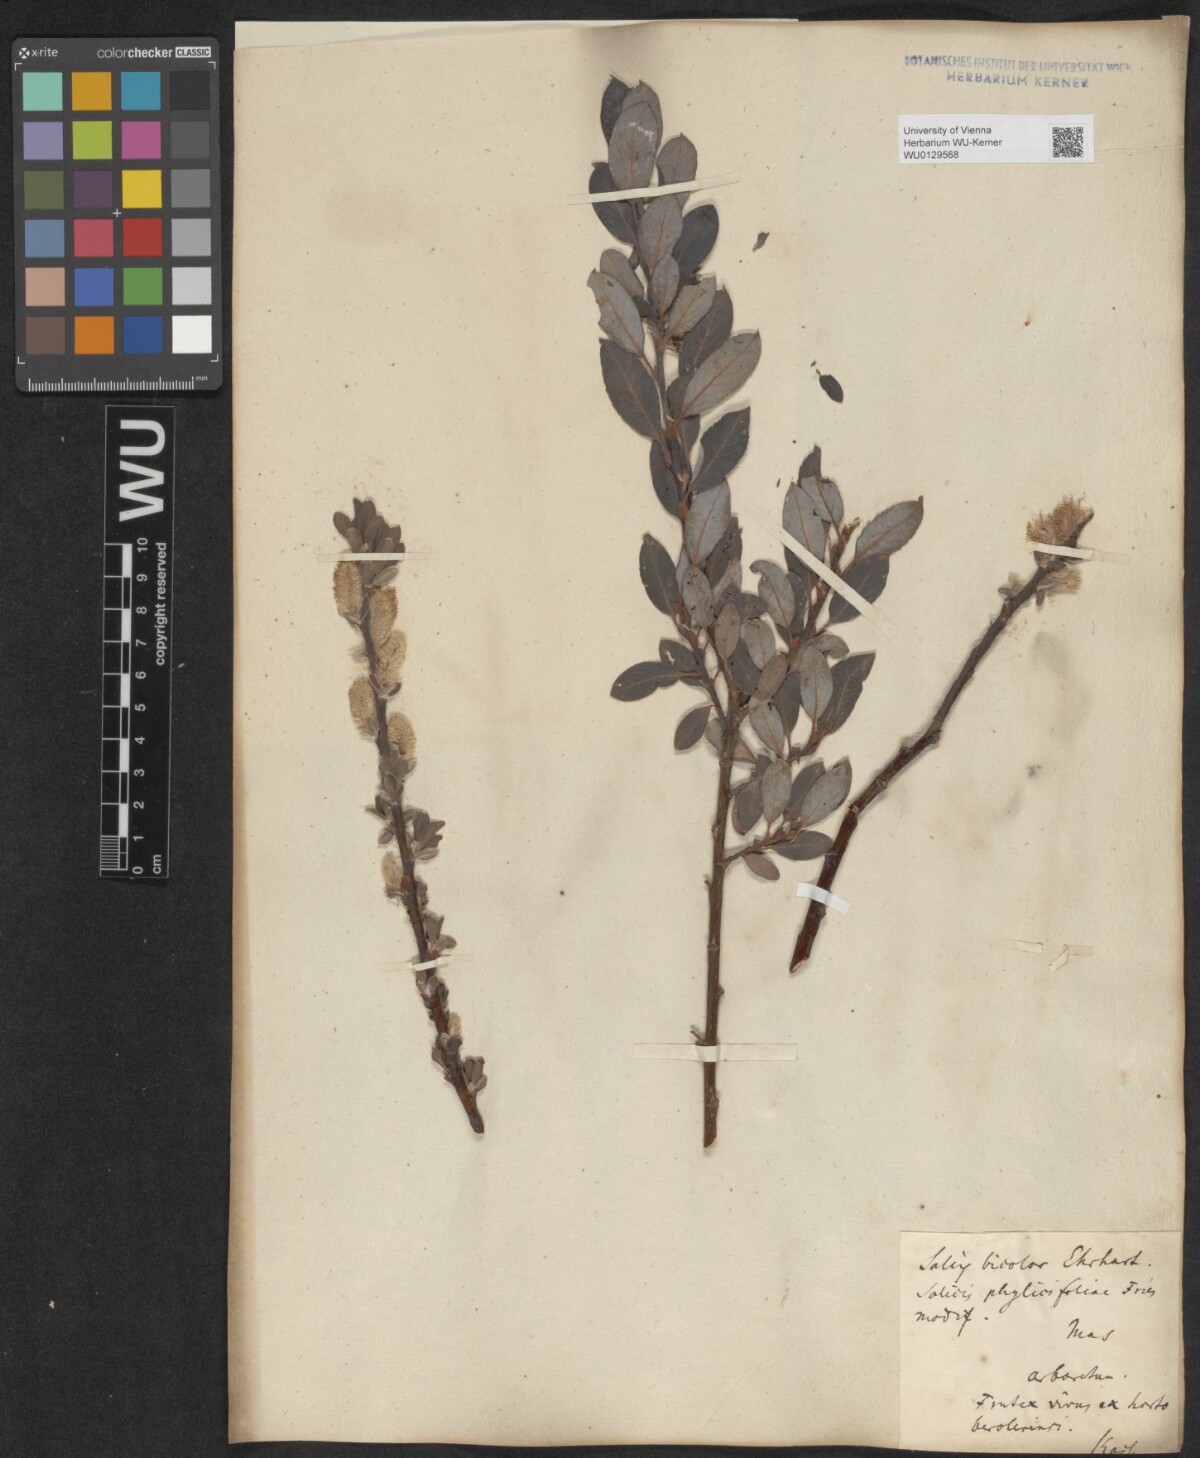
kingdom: Plantae
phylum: Tracheophyta
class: Magnoliopsida
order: Malpighiales
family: Salicaceae
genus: Salix
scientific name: Salix bicolor
